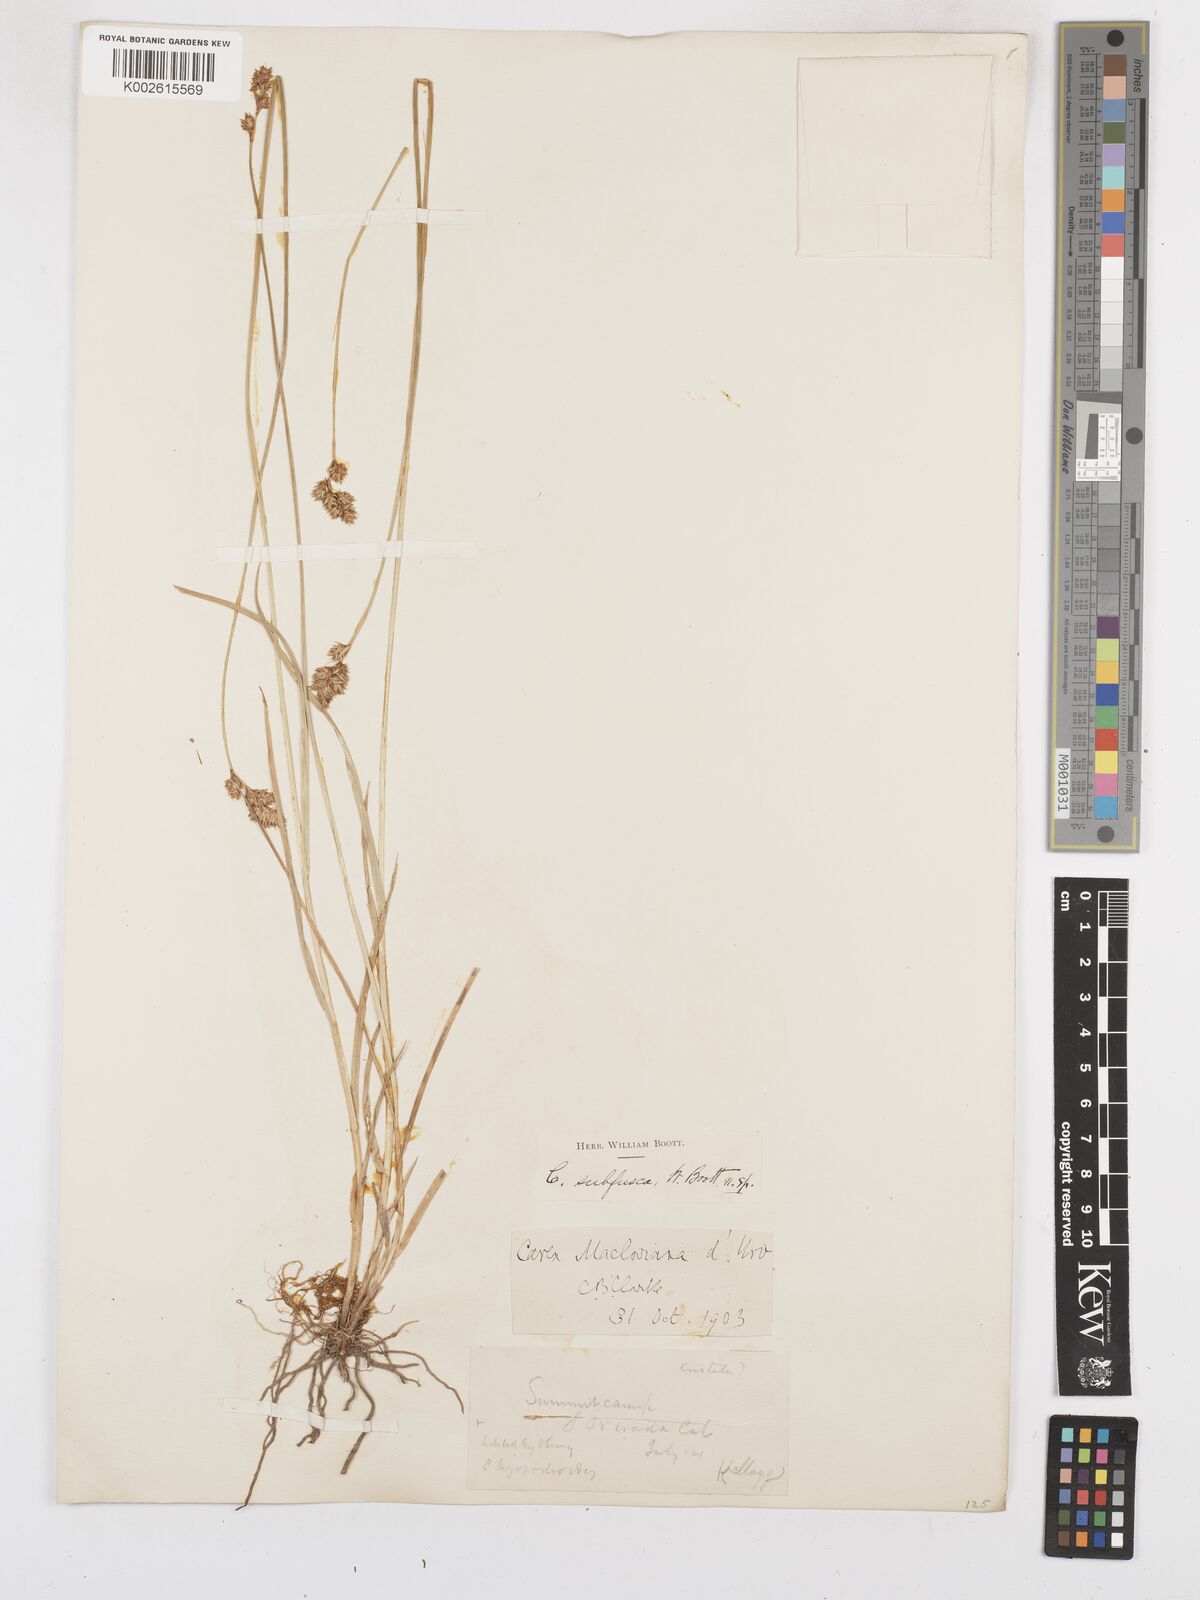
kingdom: Plantae
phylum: Tracheophyta
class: Liliopsida
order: Poales
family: Cyperaceae
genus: Carex
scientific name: Carex macloviana
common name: Falkland island sedge
